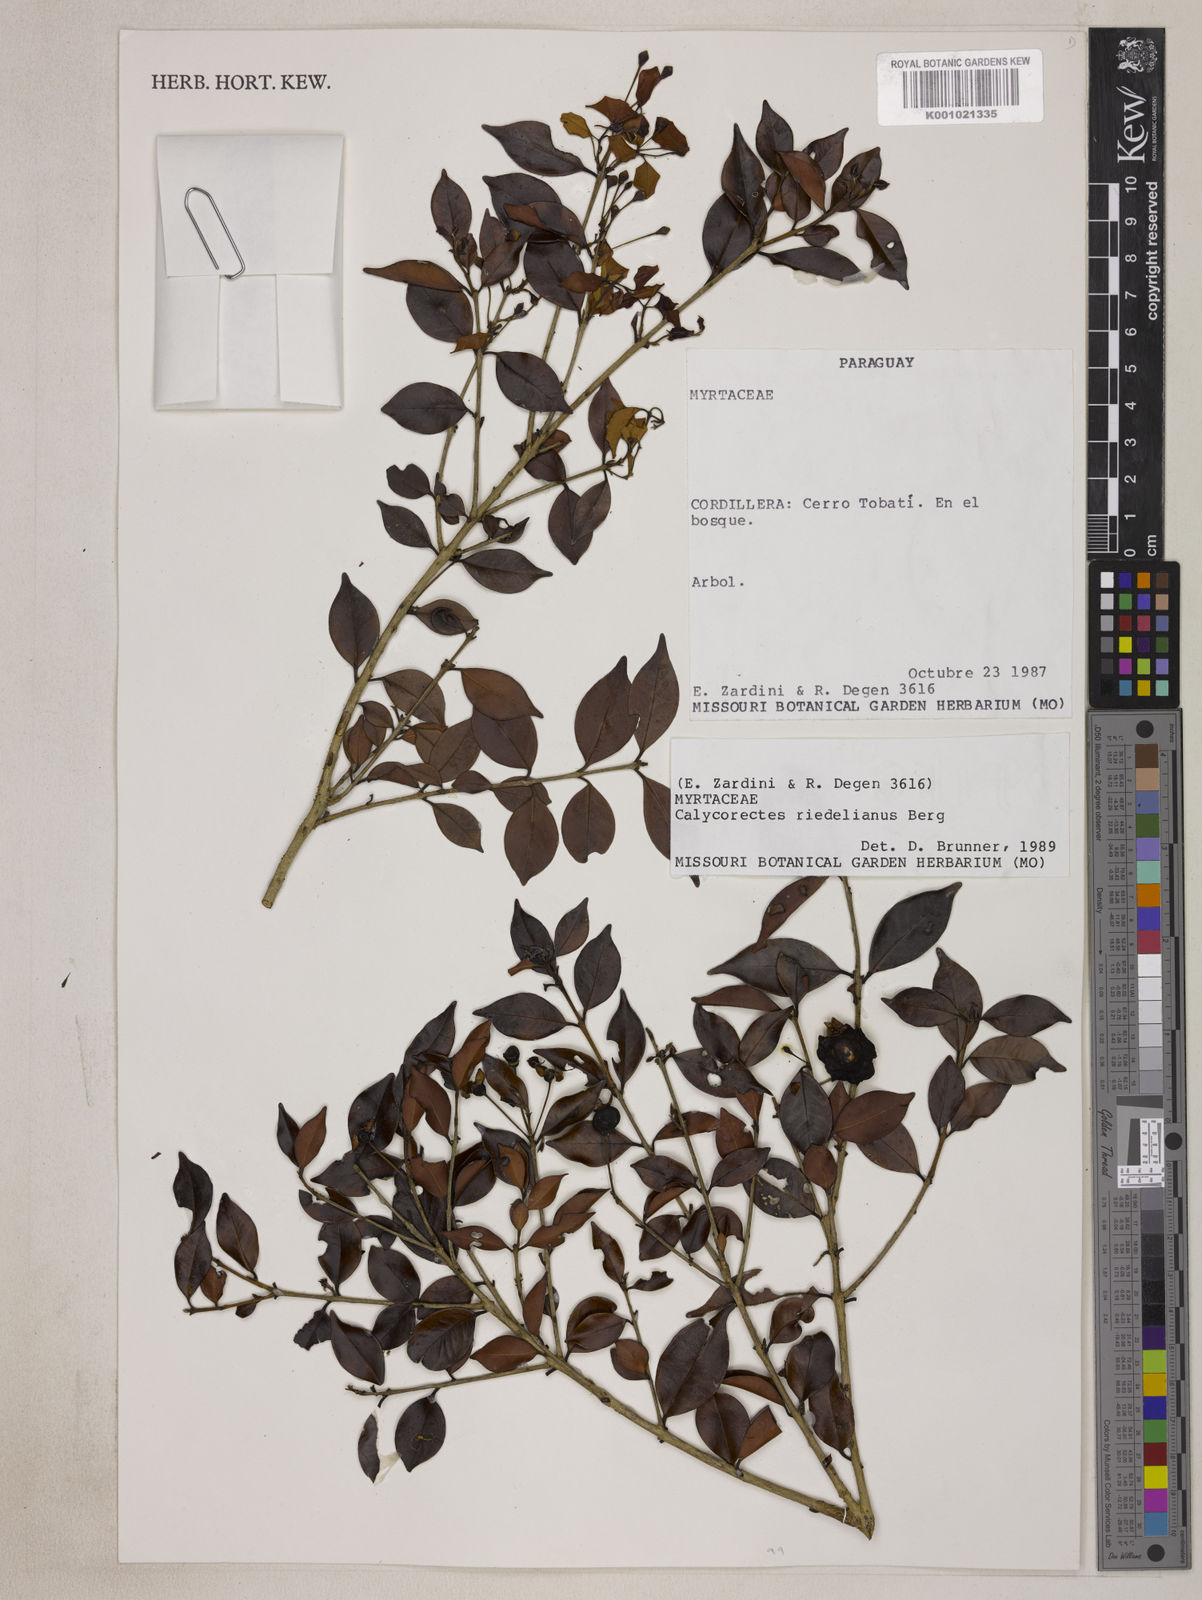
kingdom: Plantae
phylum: Tracheophyta
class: Magnoliopsida
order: Myrtales
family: Myrtaceae
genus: Eugenia
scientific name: Eugenia subterminalis
